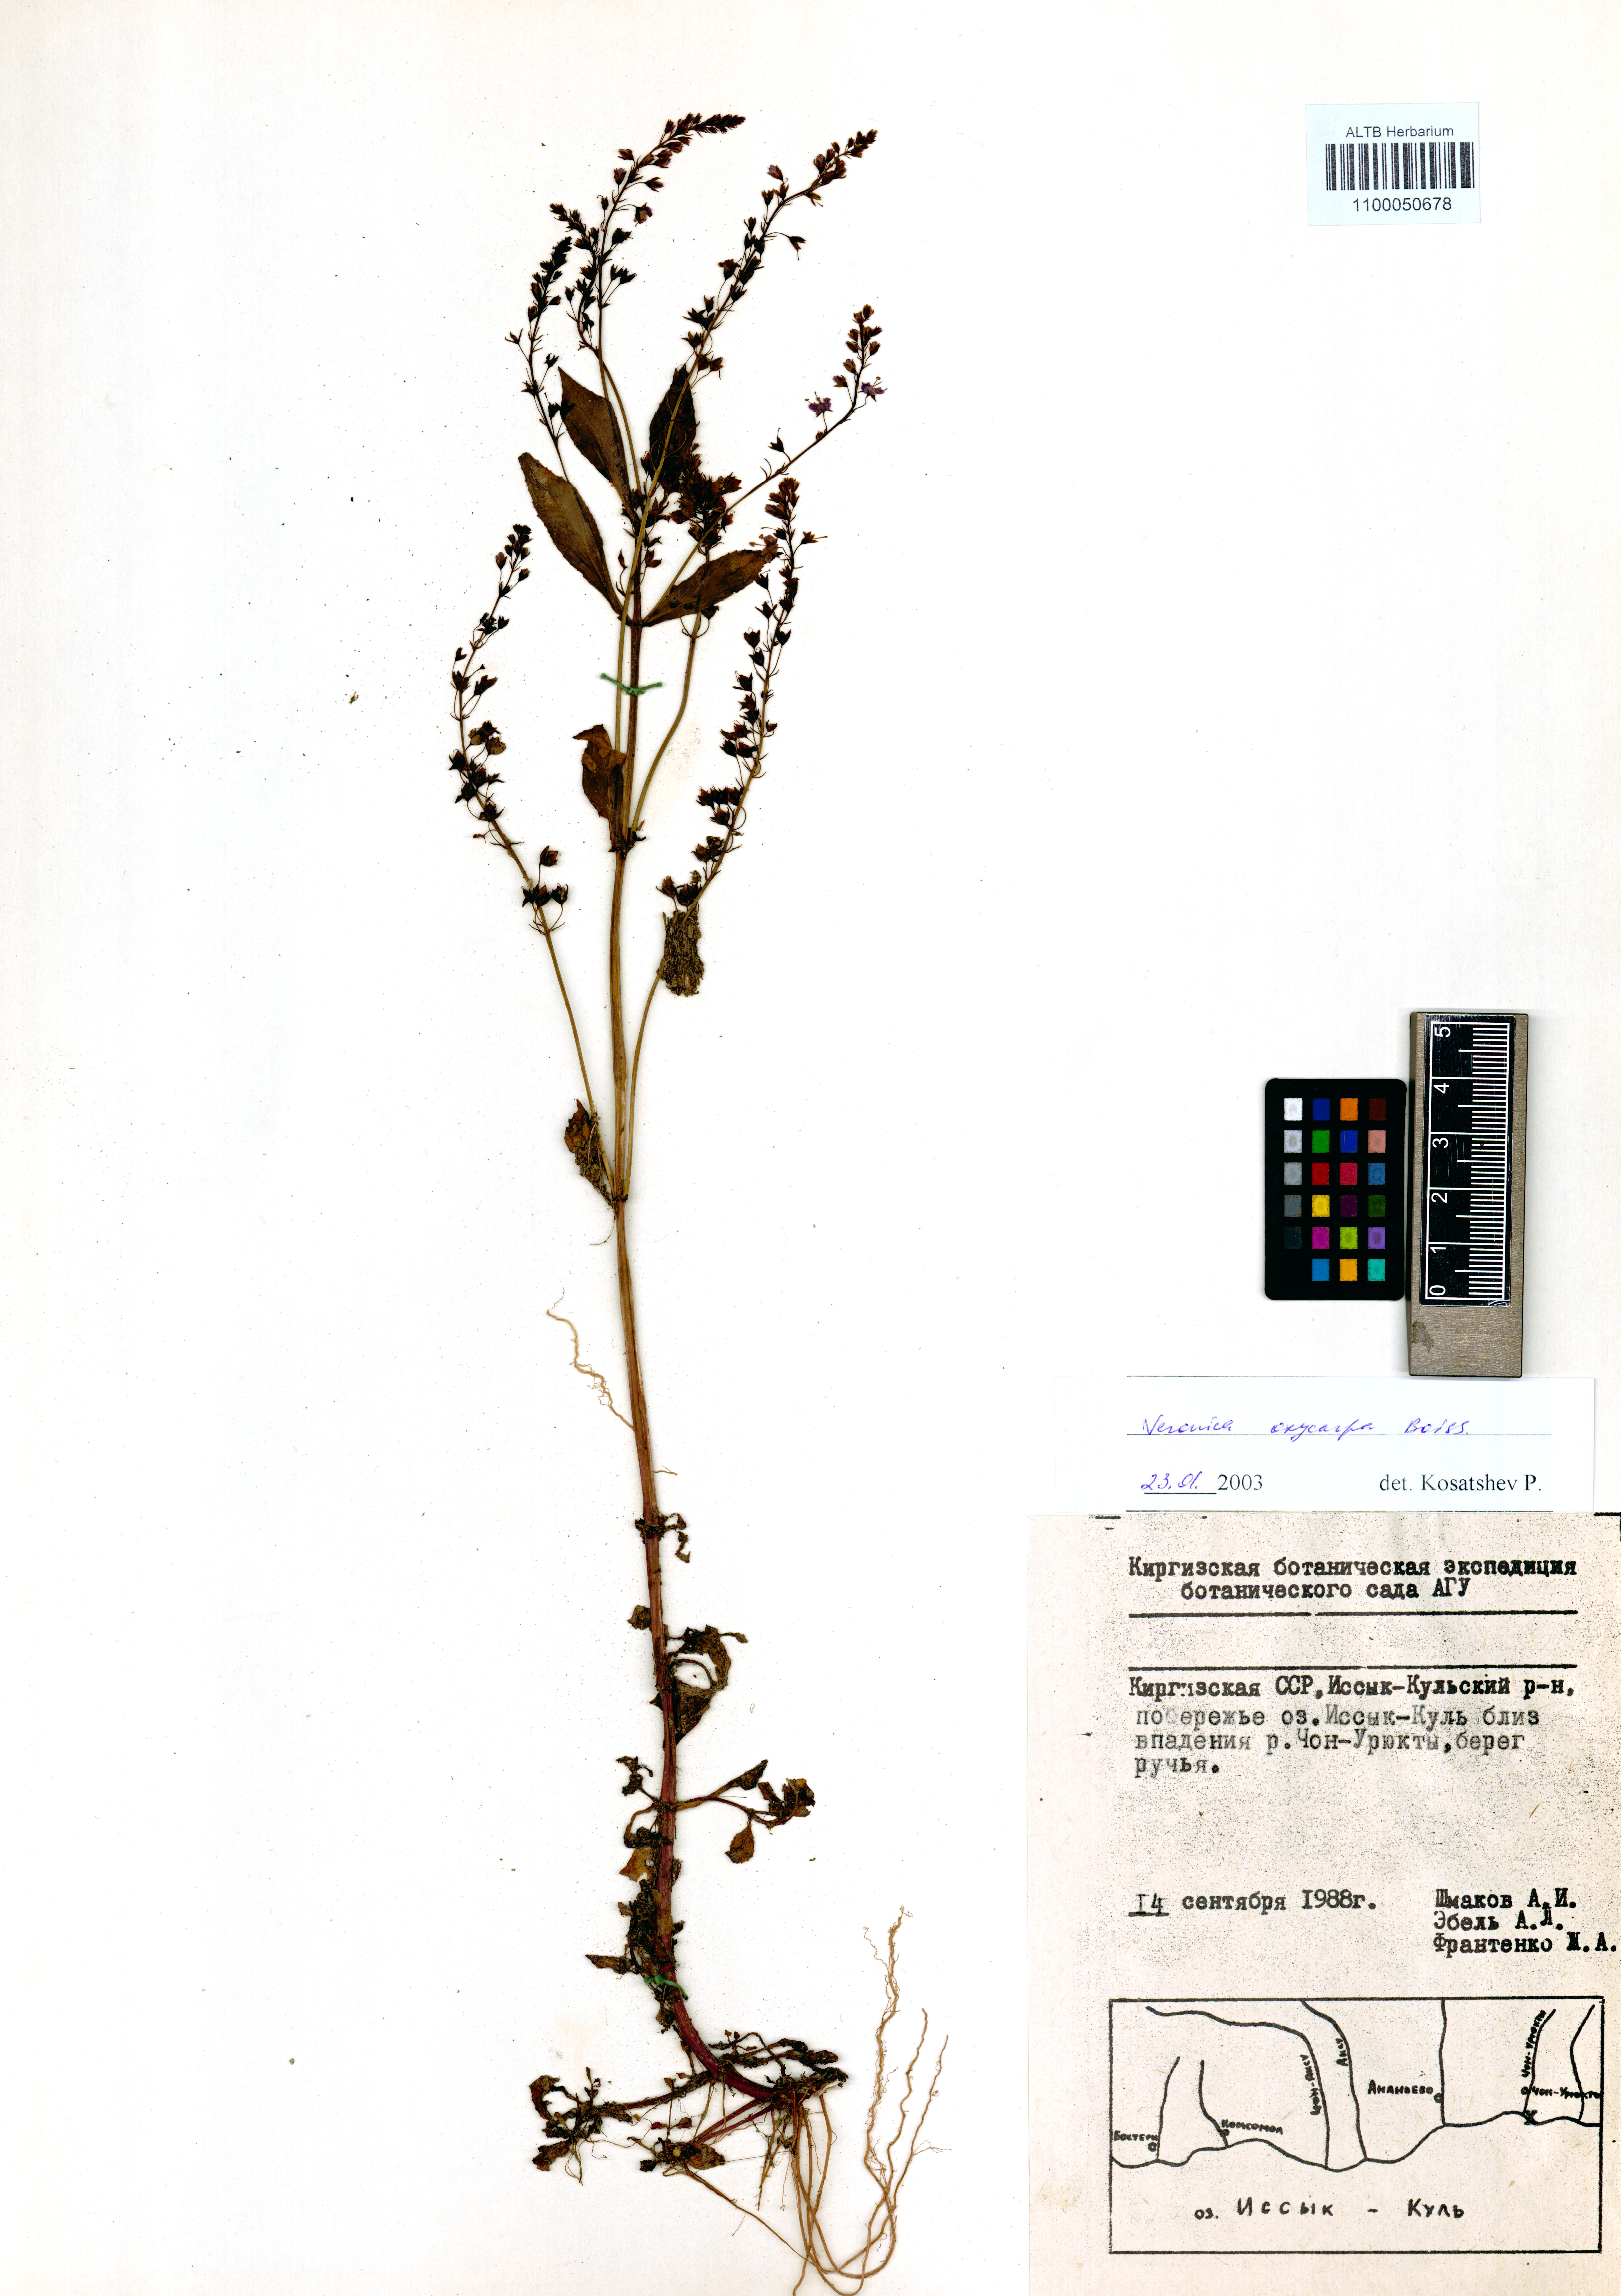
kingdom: Plantae
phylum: Tracheophyta
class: Magnoliopsida
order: Lamiales
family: Plantaginaceae
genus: Veronica
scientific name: Veronica oxycarpa
